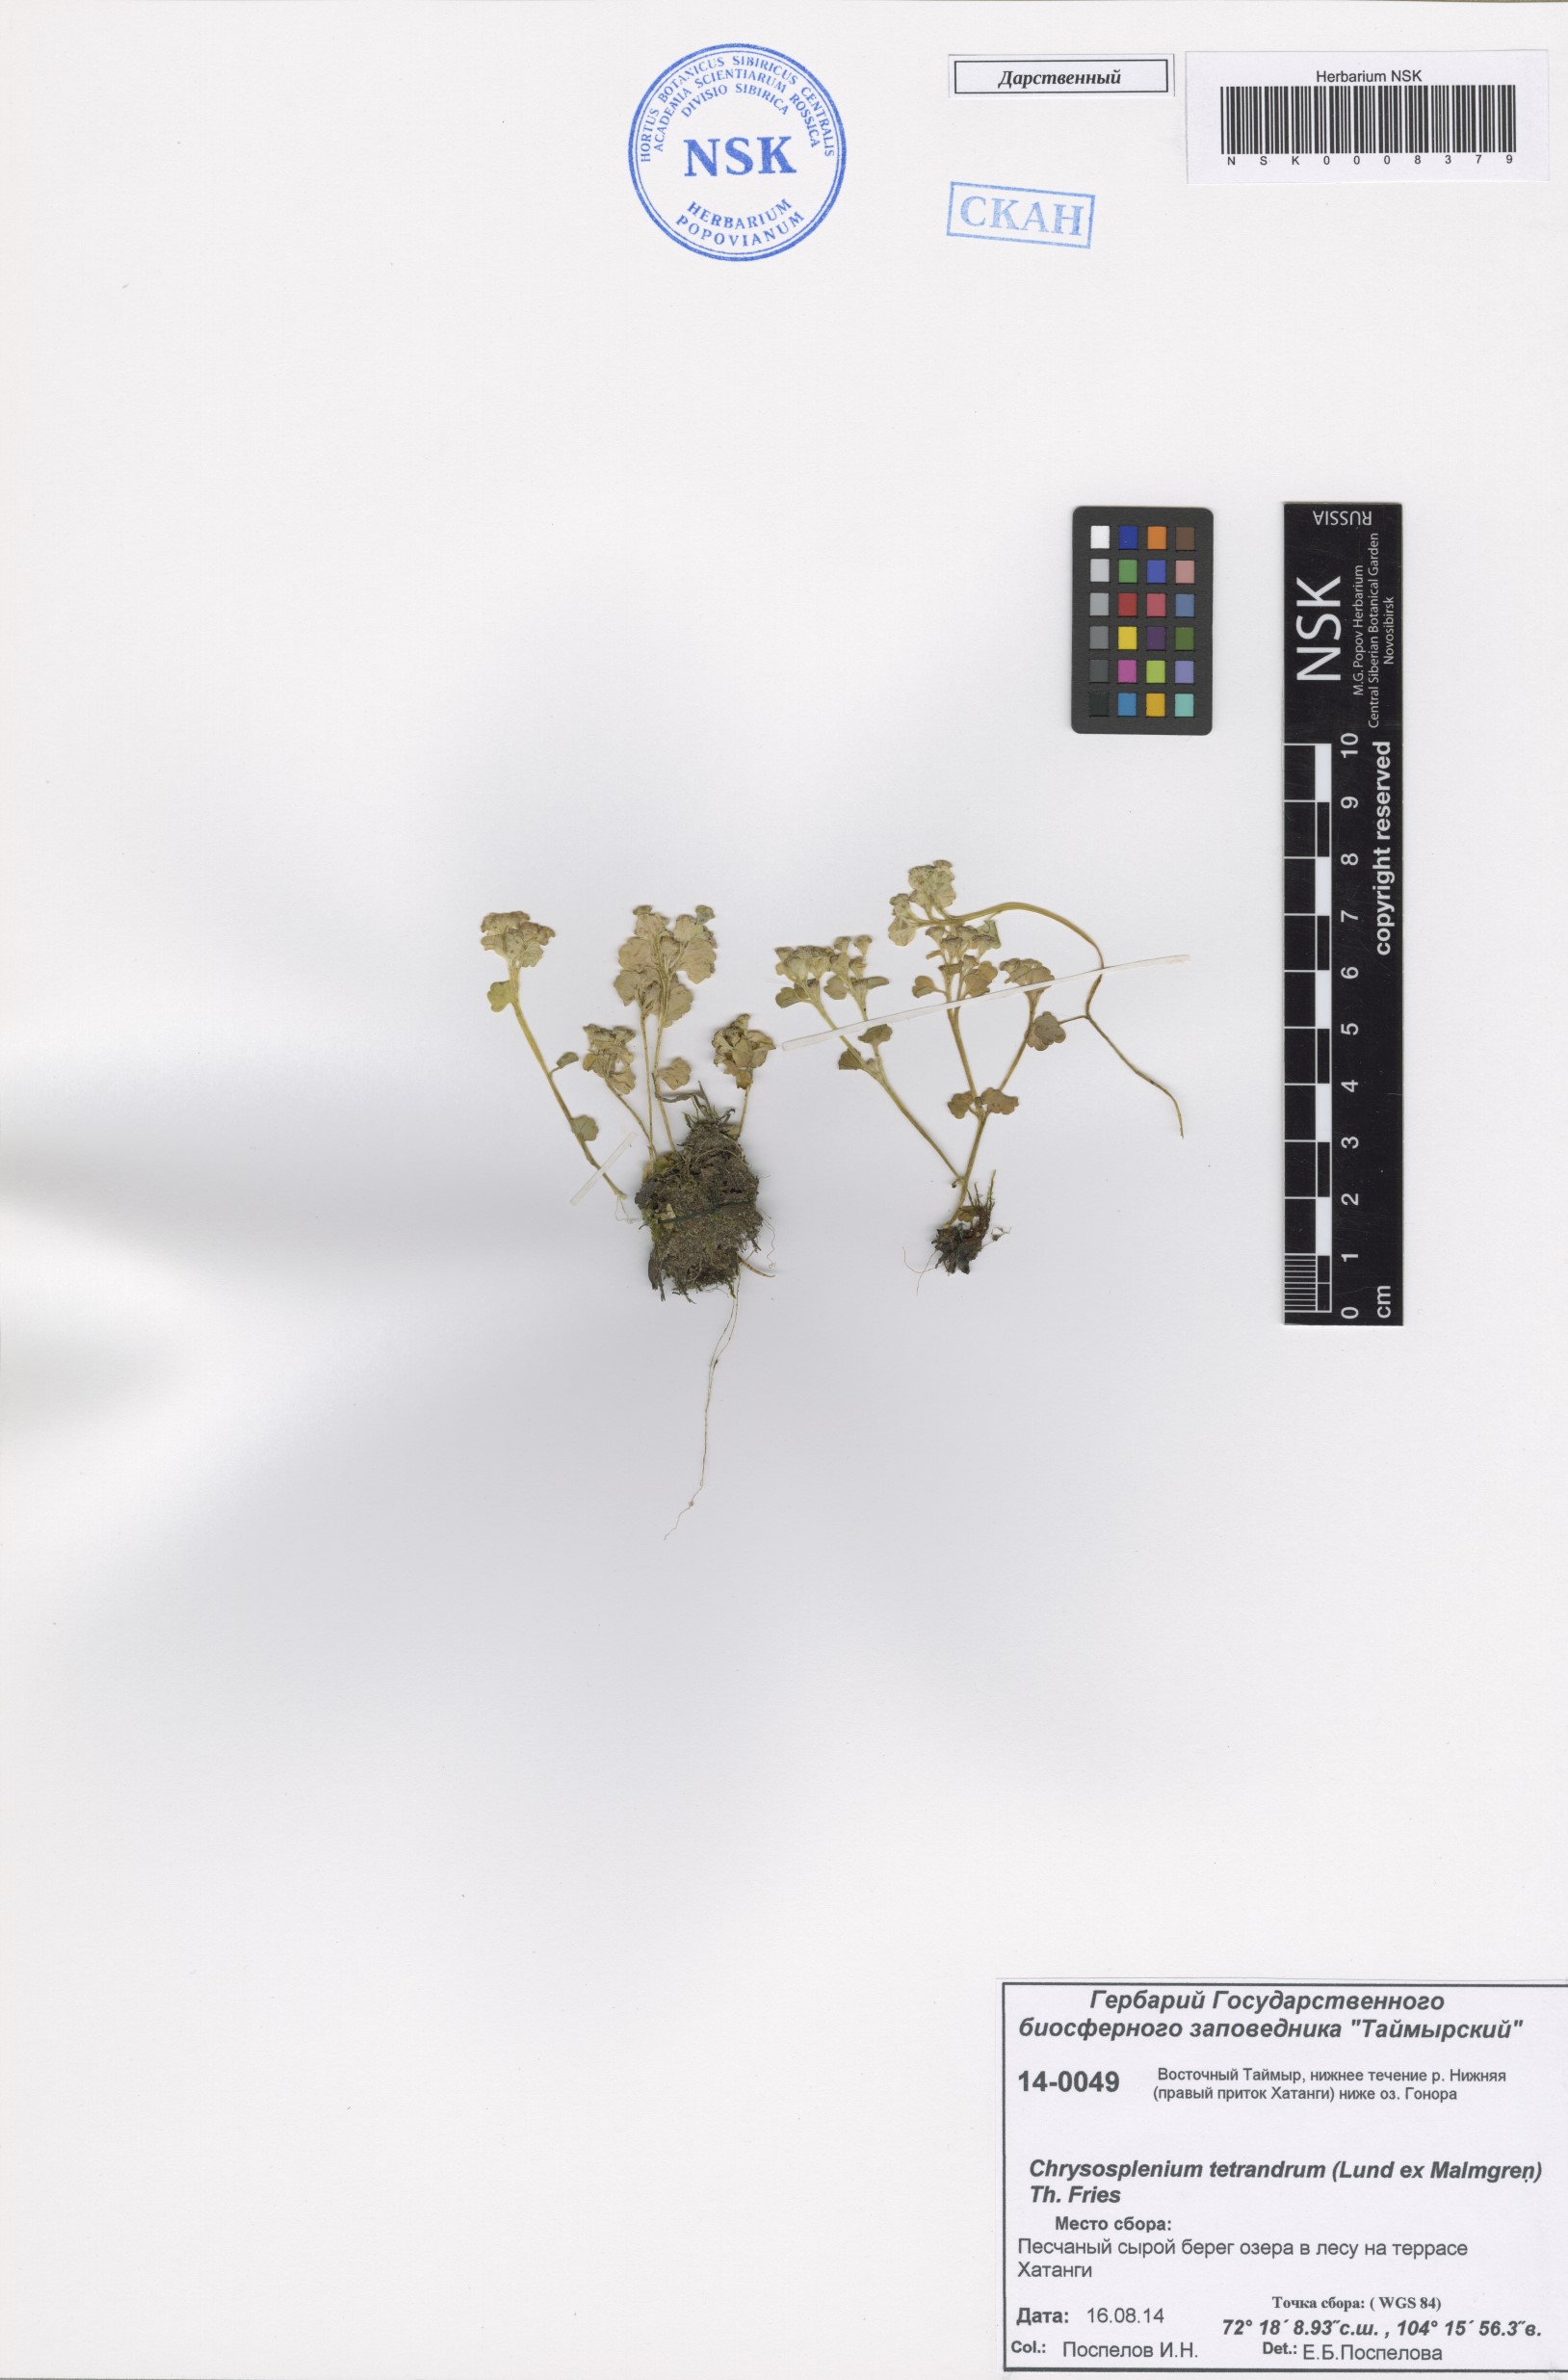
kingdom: Plantae
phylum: Tracheophyta
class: Magnoliopsida
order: Saxifragales
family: Saxifragaceae
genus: Chrysosplenium
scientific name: Chrysosplenium tetrandrum
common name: Green saxifrage
